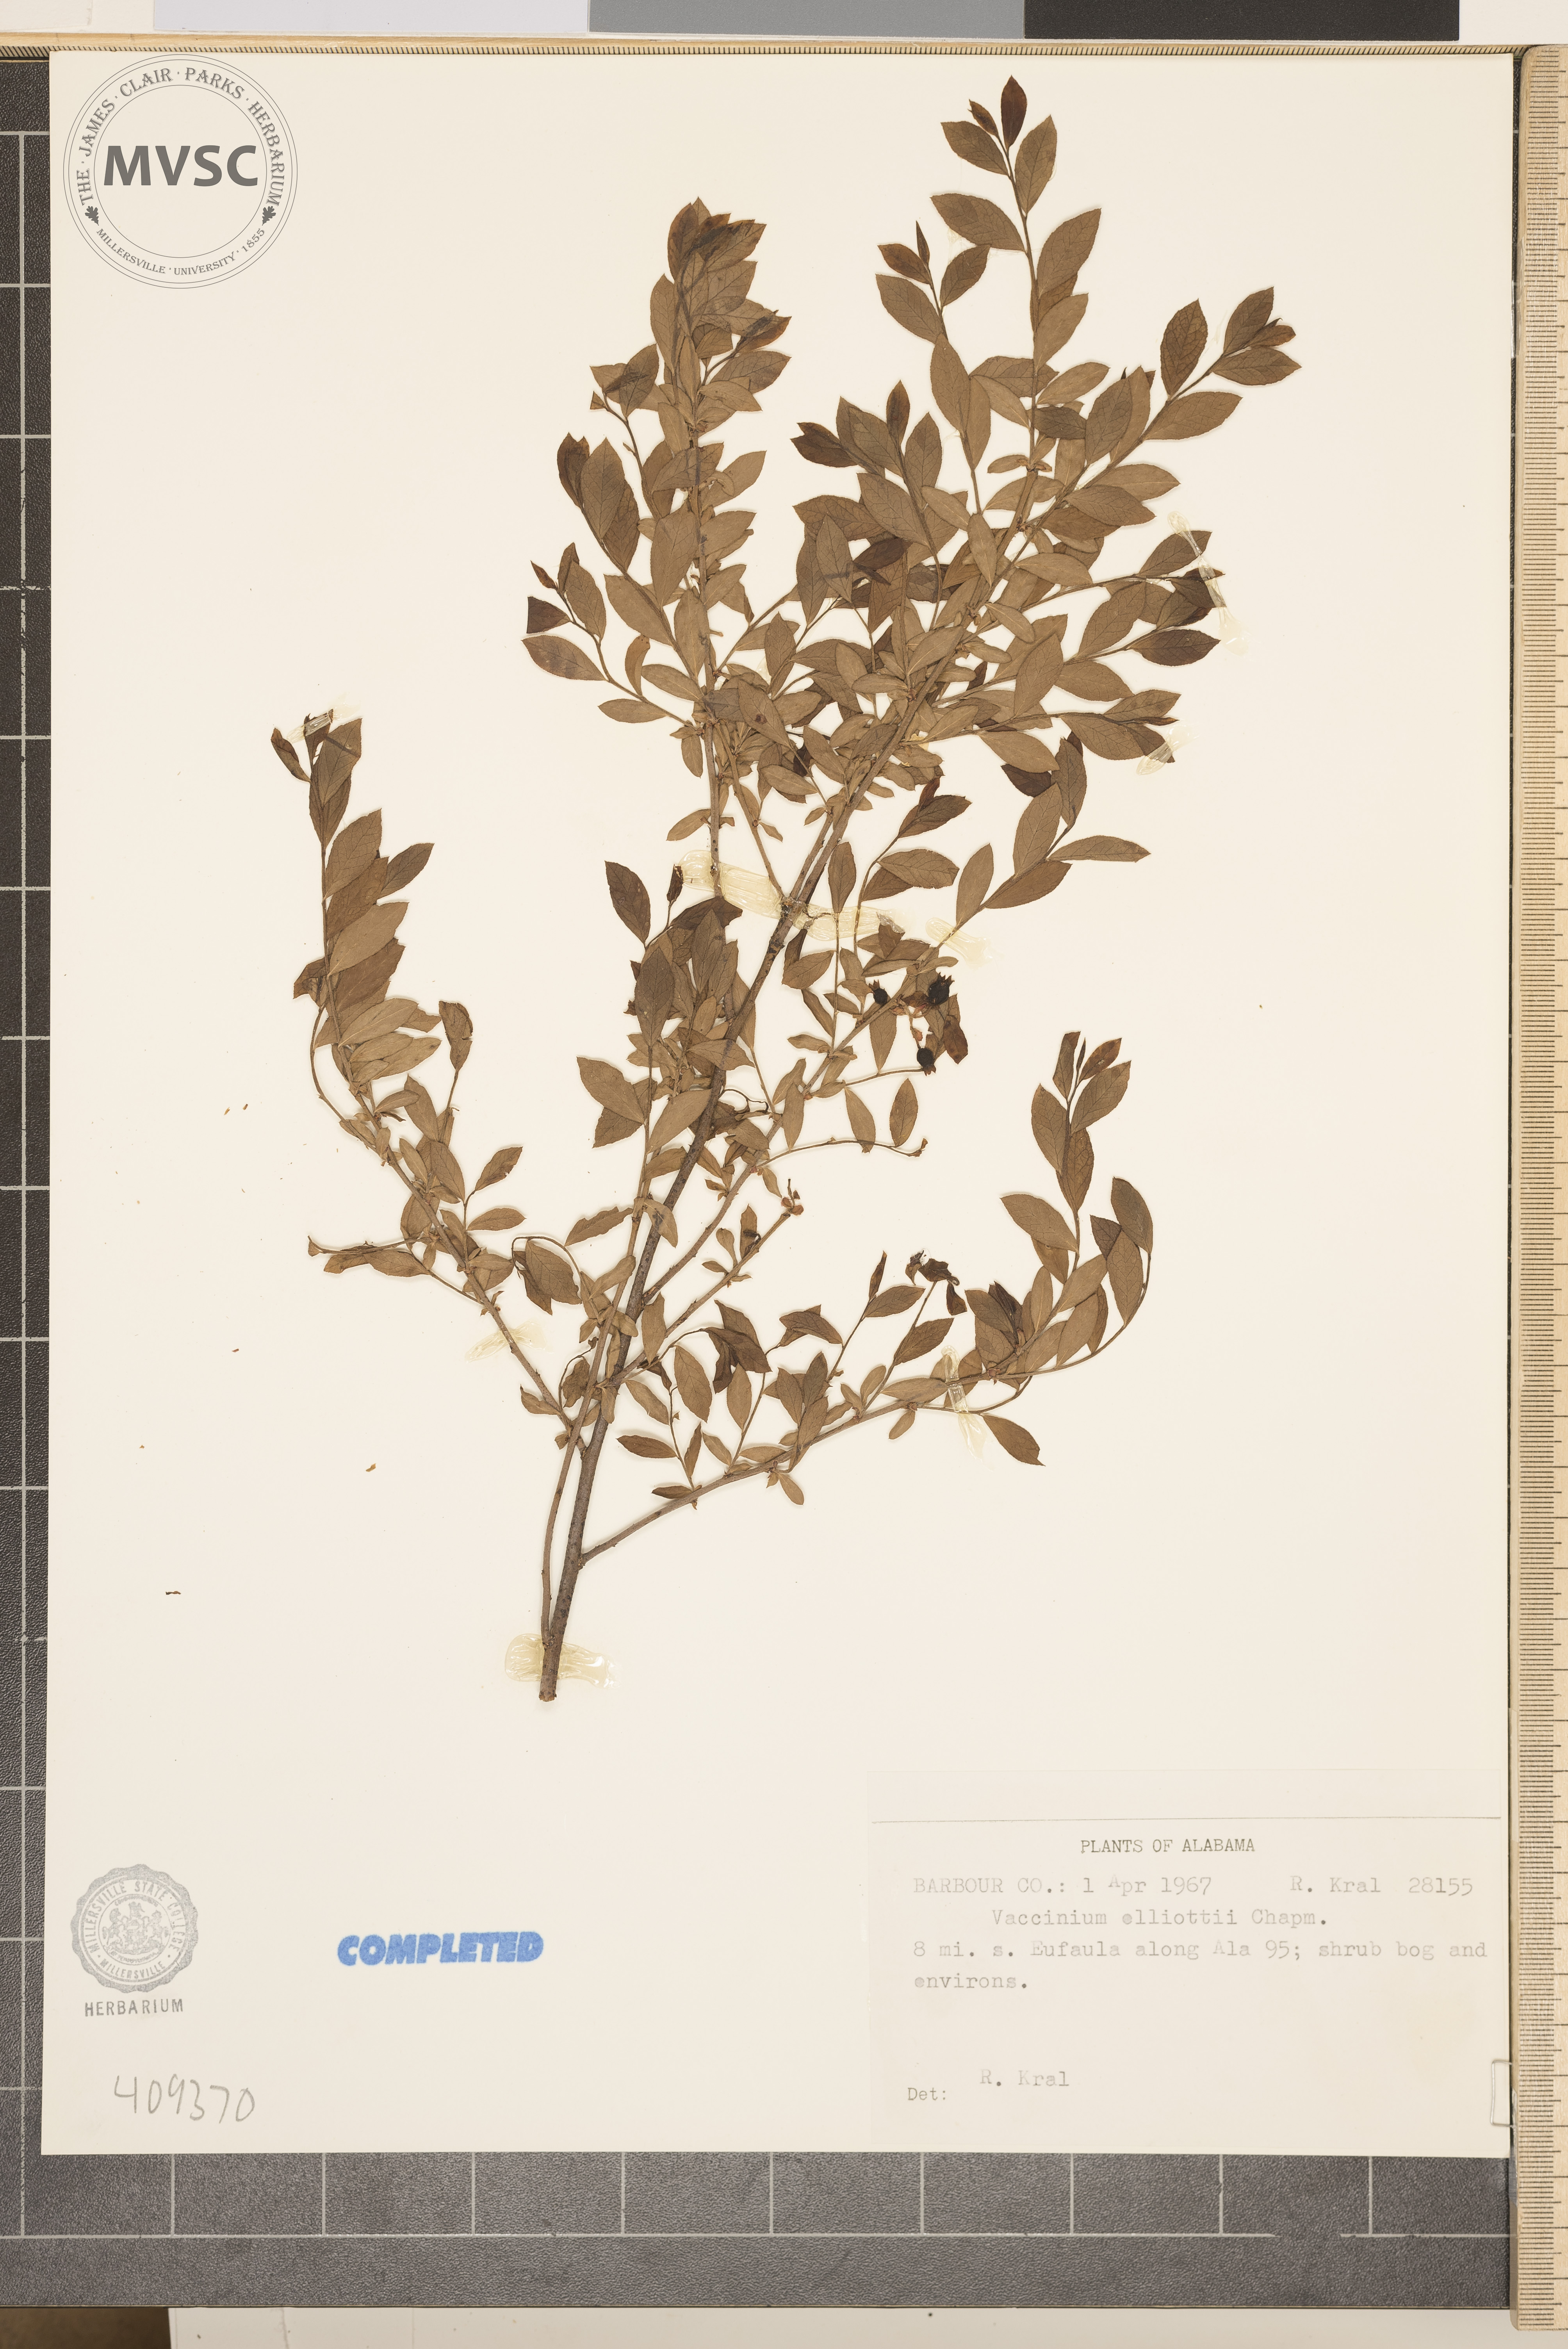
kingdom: Plantae
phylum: Tracheophyta
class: Magnoliopsida
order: Ericales
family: Ericaceae
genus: Vaccinium
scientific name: Vaccinium corymbosum
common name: Blueberry
